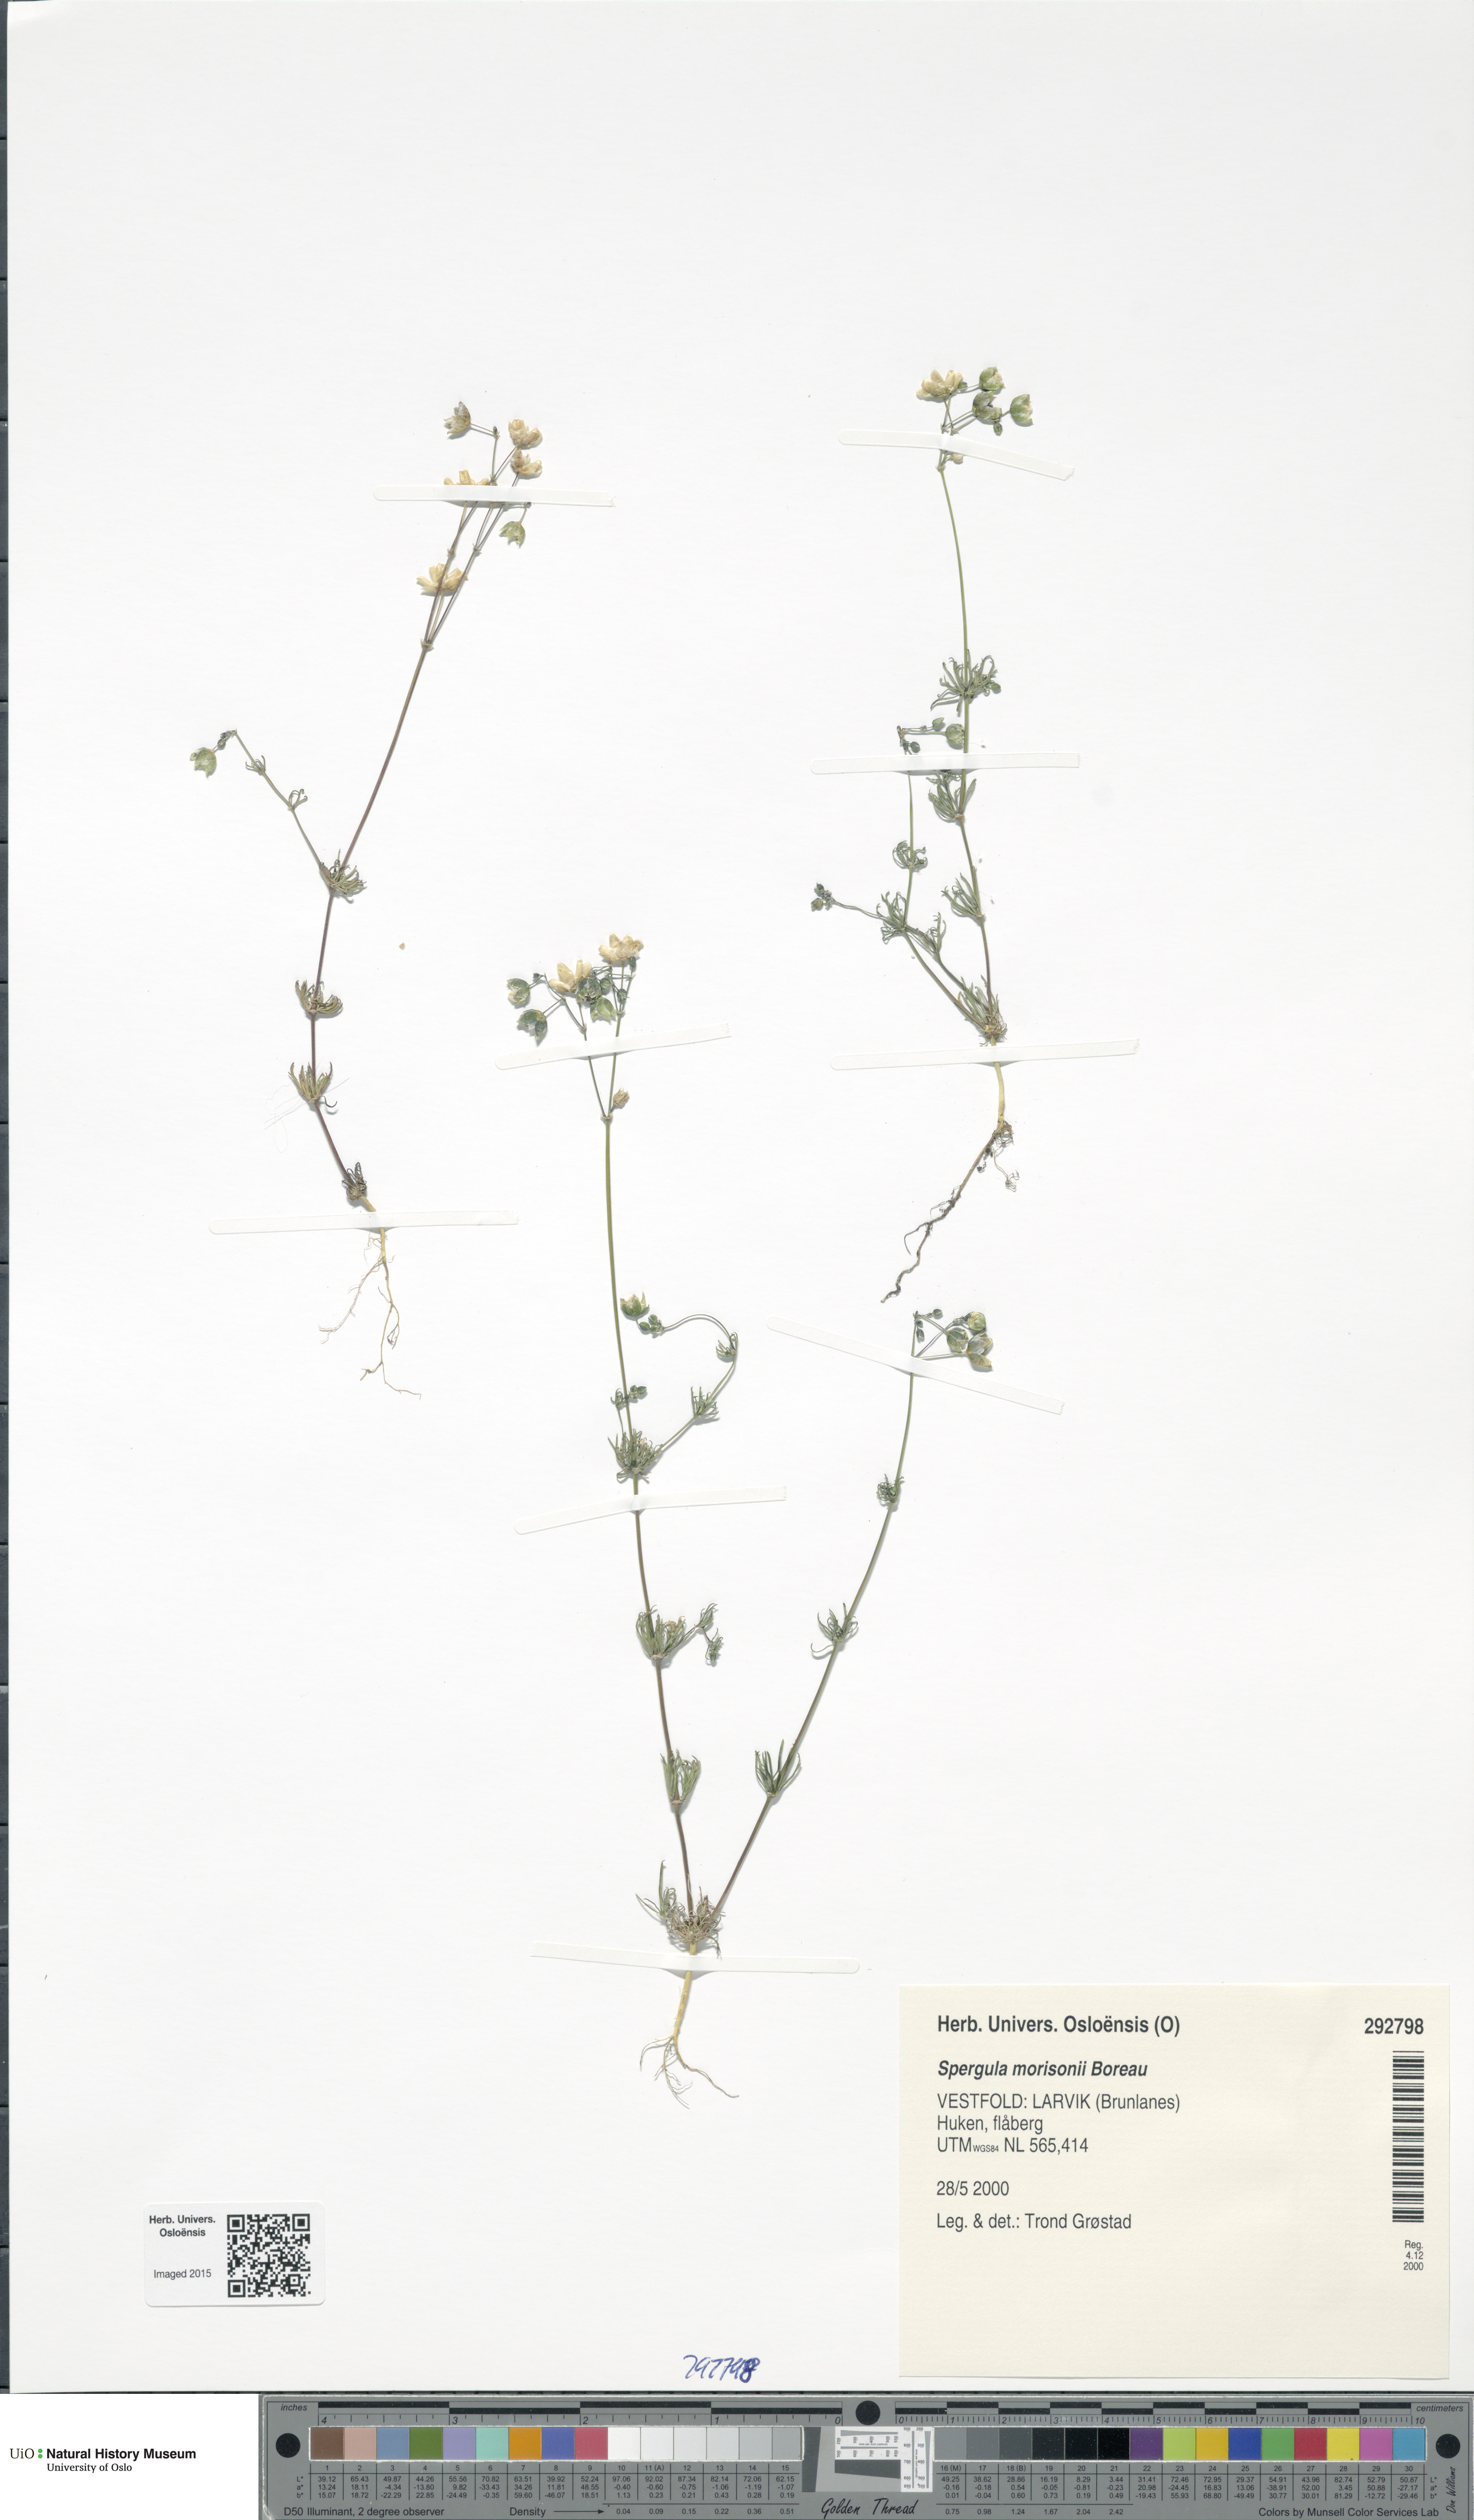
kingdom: Plantae
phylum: Tracheophyta
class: Magnoliopsida
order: Caryophyllales
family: Caryophyllaceae
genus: Spergula
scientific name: Spergula morisonii
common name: Pearlwort spurrey
